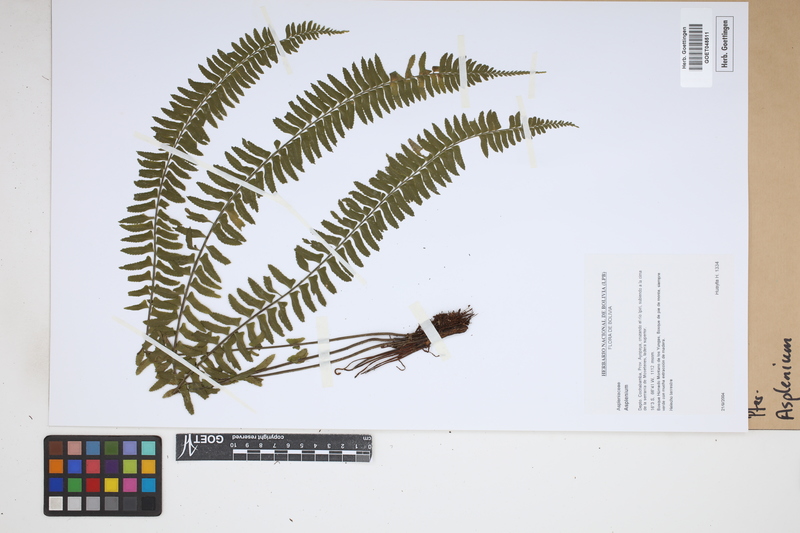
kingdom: Plantae
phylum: Tracheophyta
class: Polypodiopsida
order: Polypodiales
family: Aspleniaceae
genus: Asplenium
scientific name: Asplenium
